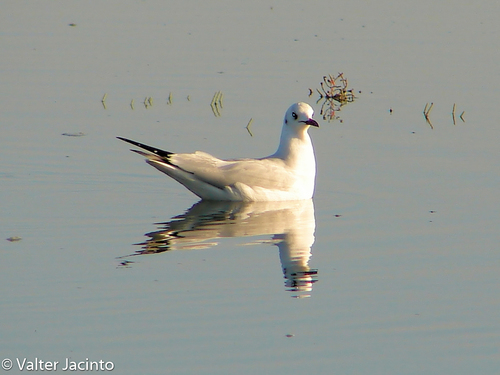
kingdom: Animalia
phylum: Chordata
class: Aves
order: Charadriiformes
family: Laridae
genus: Chroicocephalus
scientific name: Chroicocephalus ridibundus
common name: Black-headed gull
